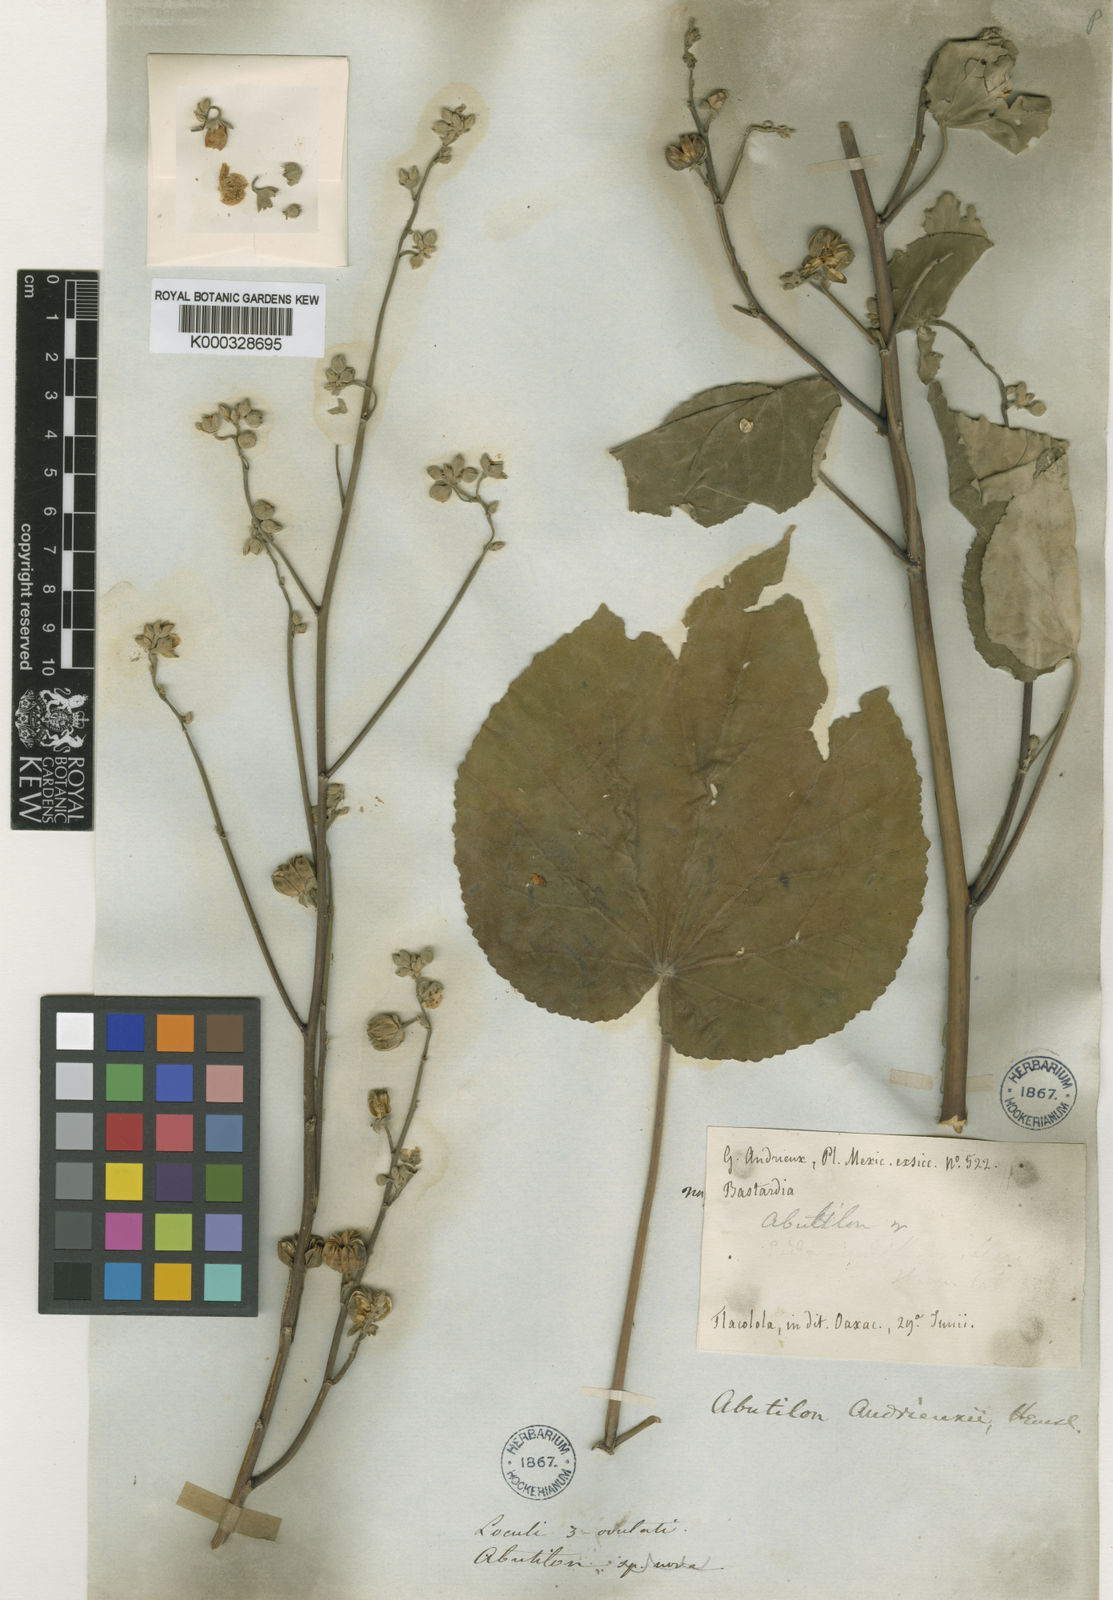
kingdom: Plantae
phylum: Tracheophyta
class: Magnoliopsida
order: Malvales
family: Malvaceae
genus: Abutilon
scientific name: Abutilon andrieuxii
